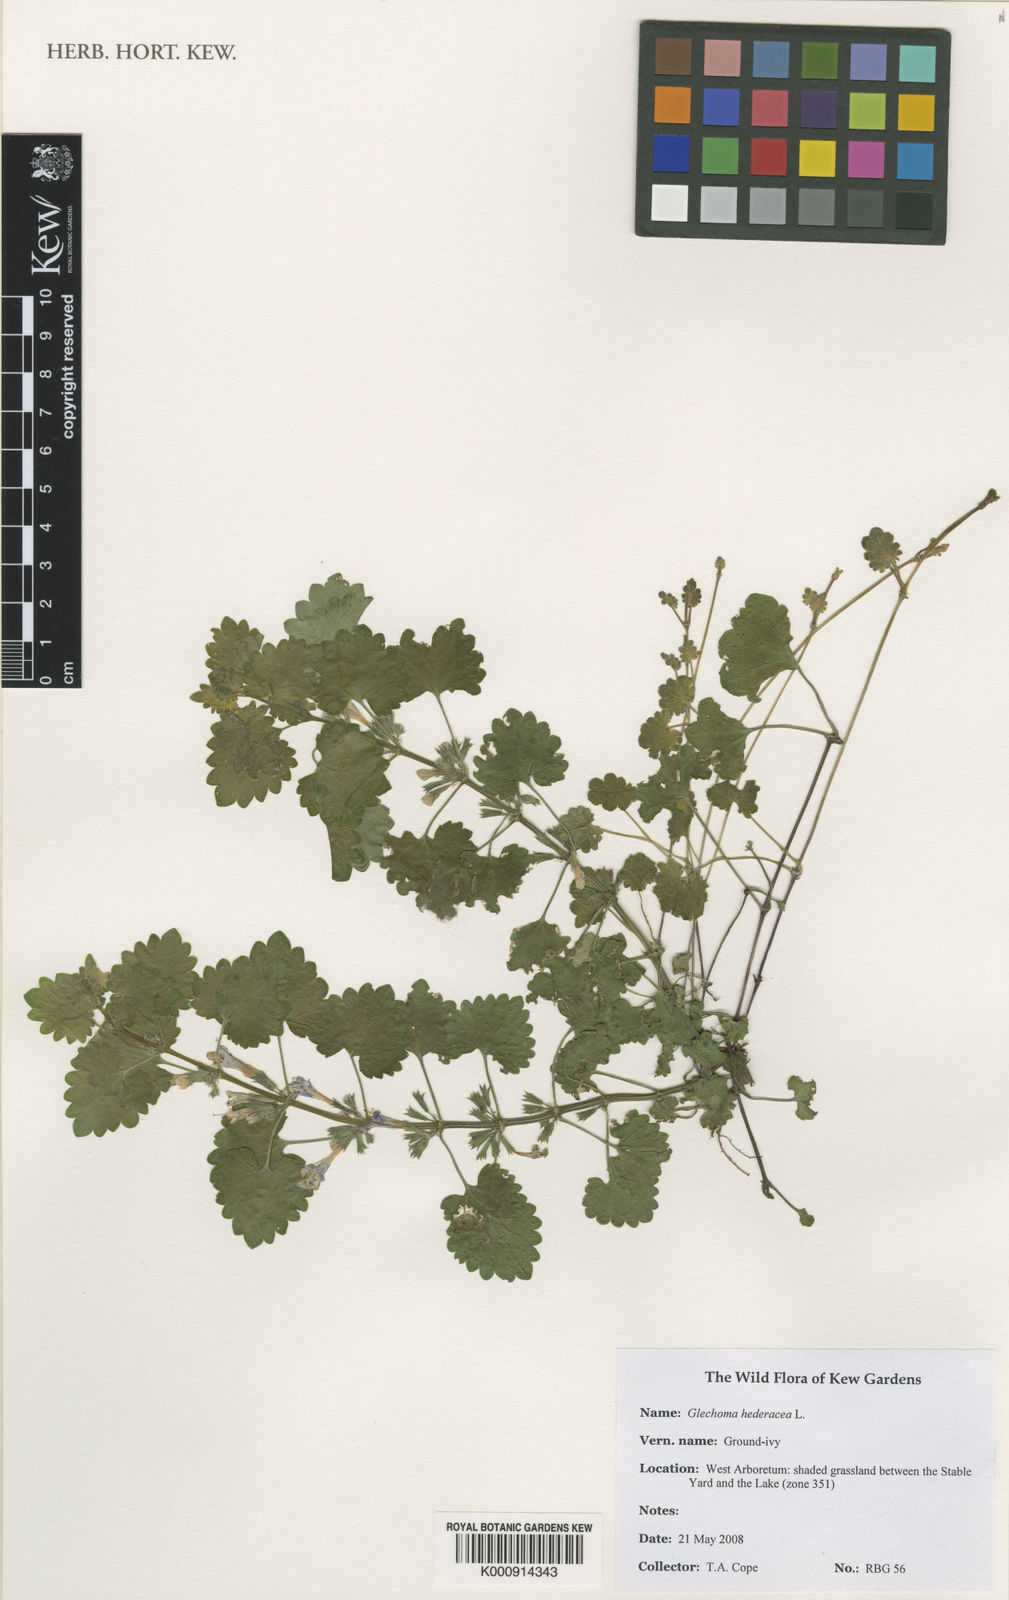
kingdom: Plantae
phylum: Tracheophyta
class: Magnoliopsida
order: Lamiales
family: Lamiaceae
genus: Glechoma
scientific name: Glechoma hederacea
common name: Ground ivy
